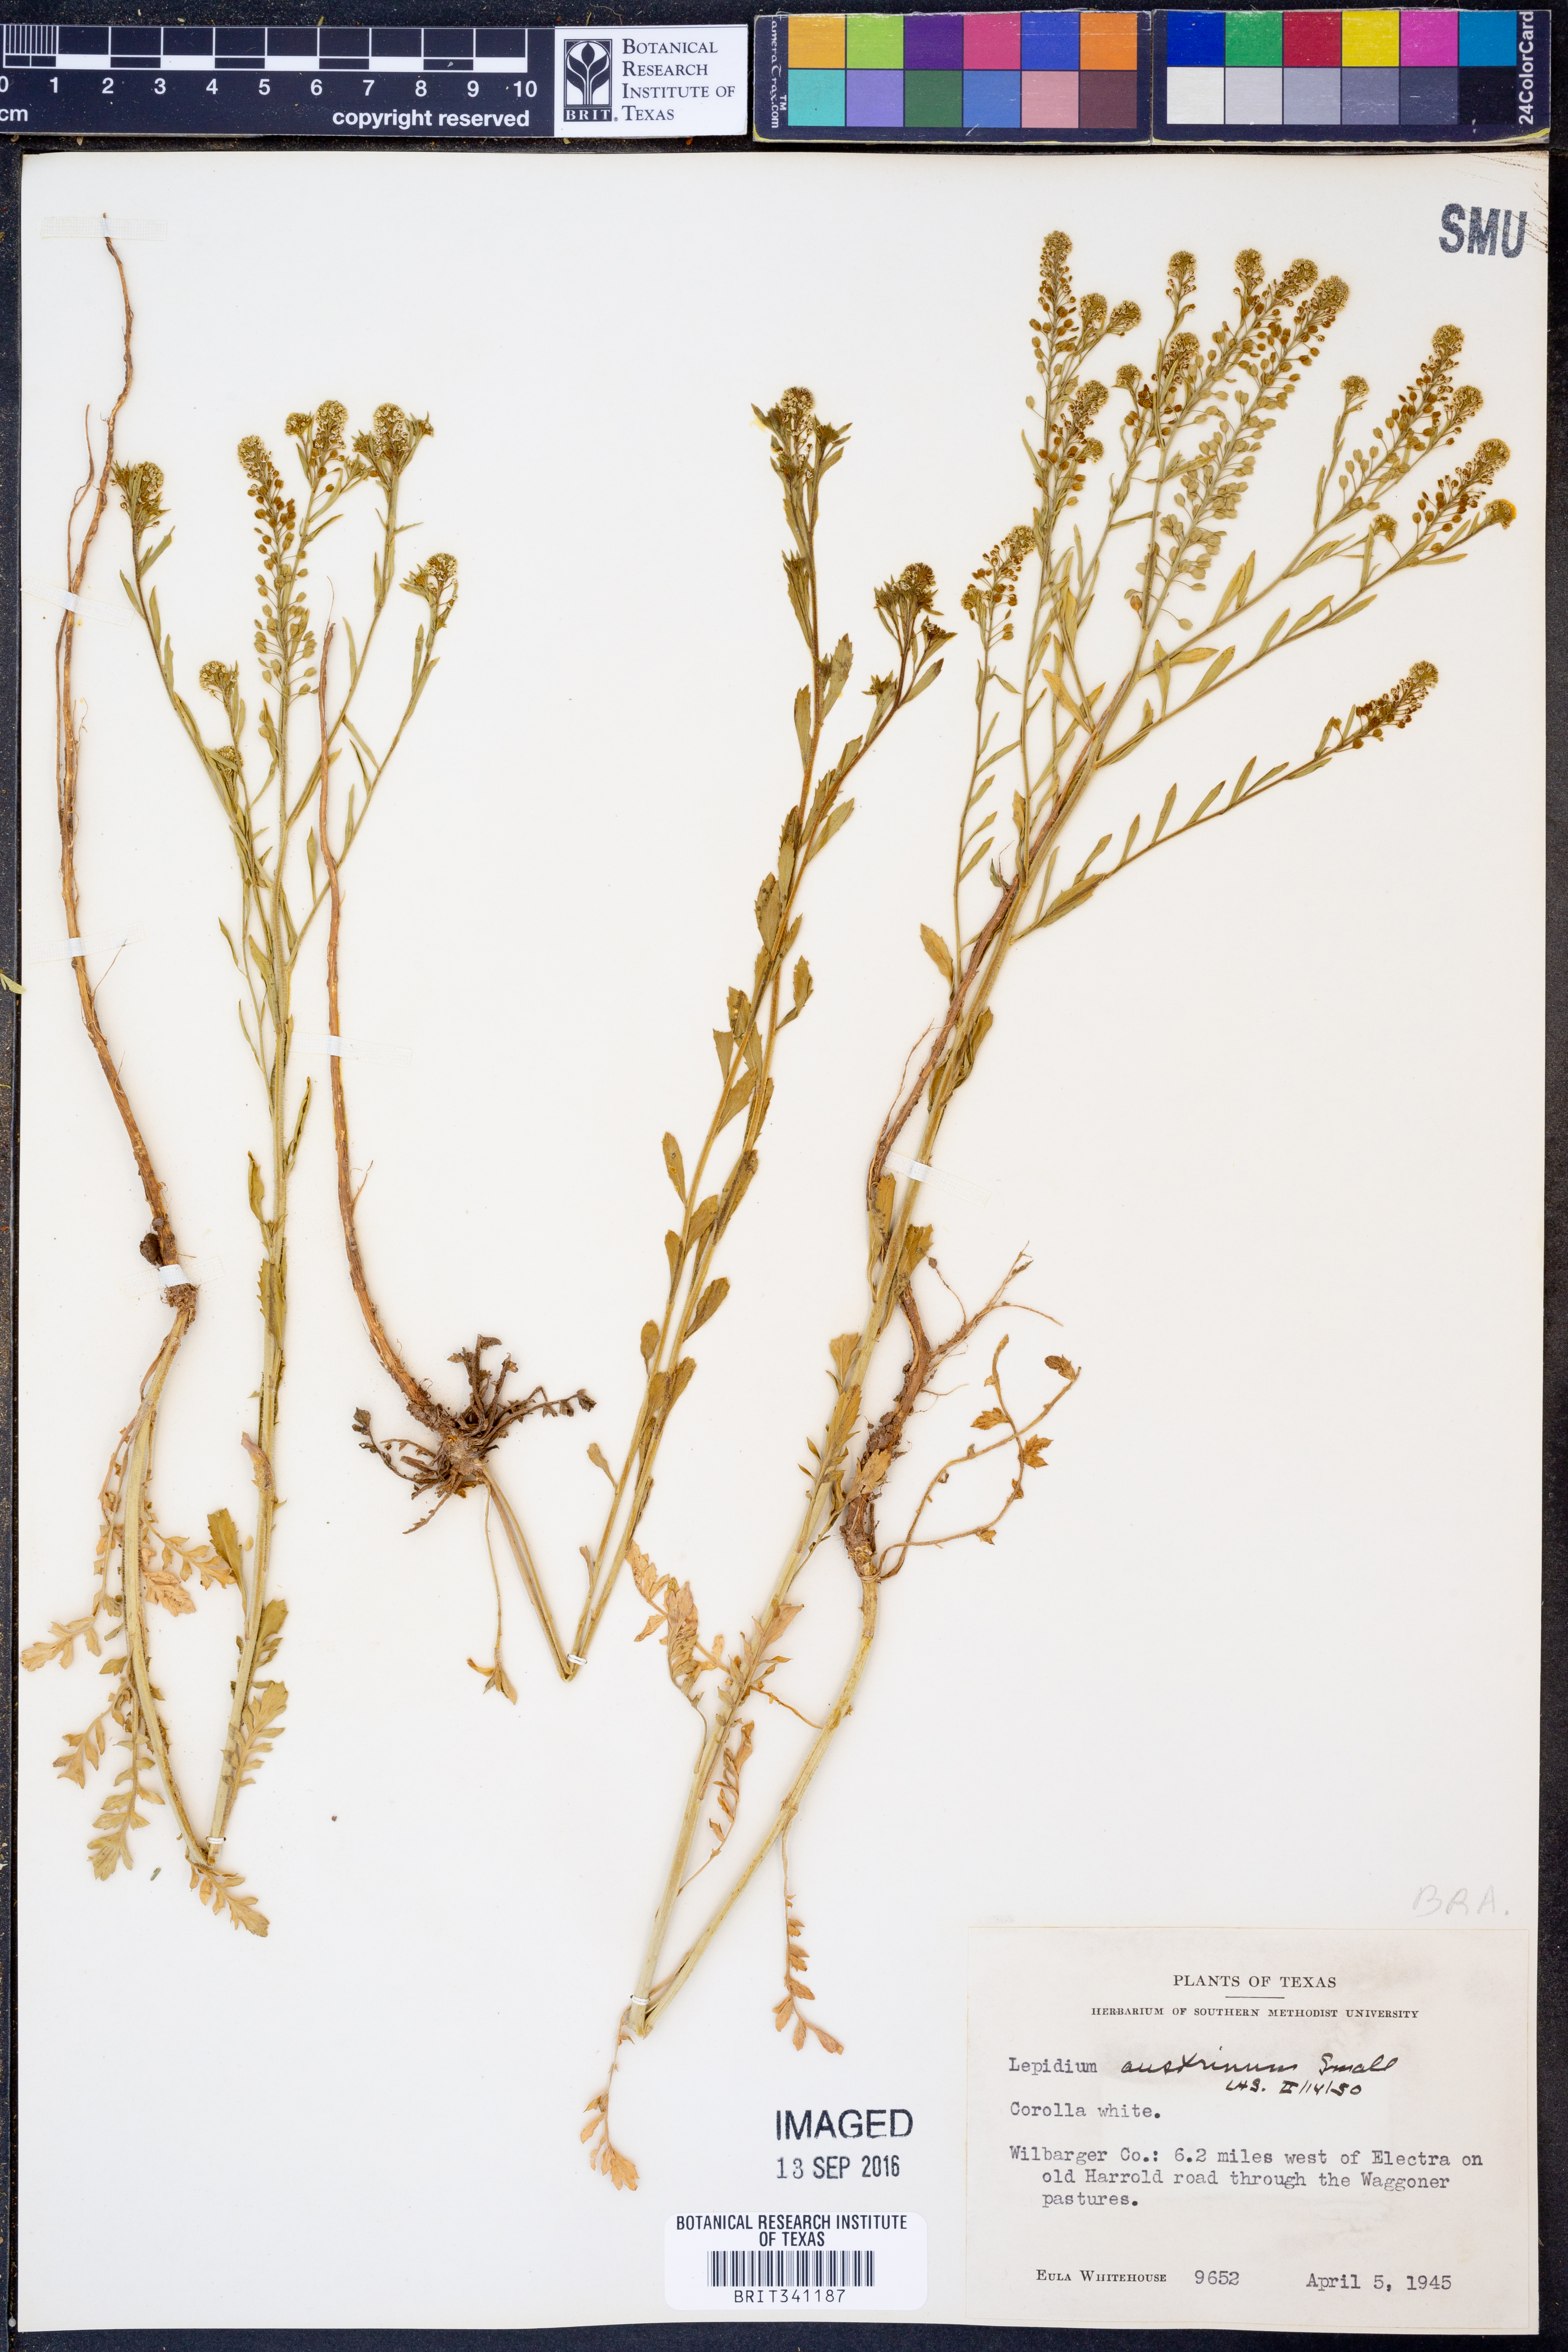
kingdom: Plantae
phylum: Tracheophyta
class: Magnoliopsida
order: Brassicales
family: Brassicaceae
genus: Lepidium
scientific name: Lepidium austrinum
